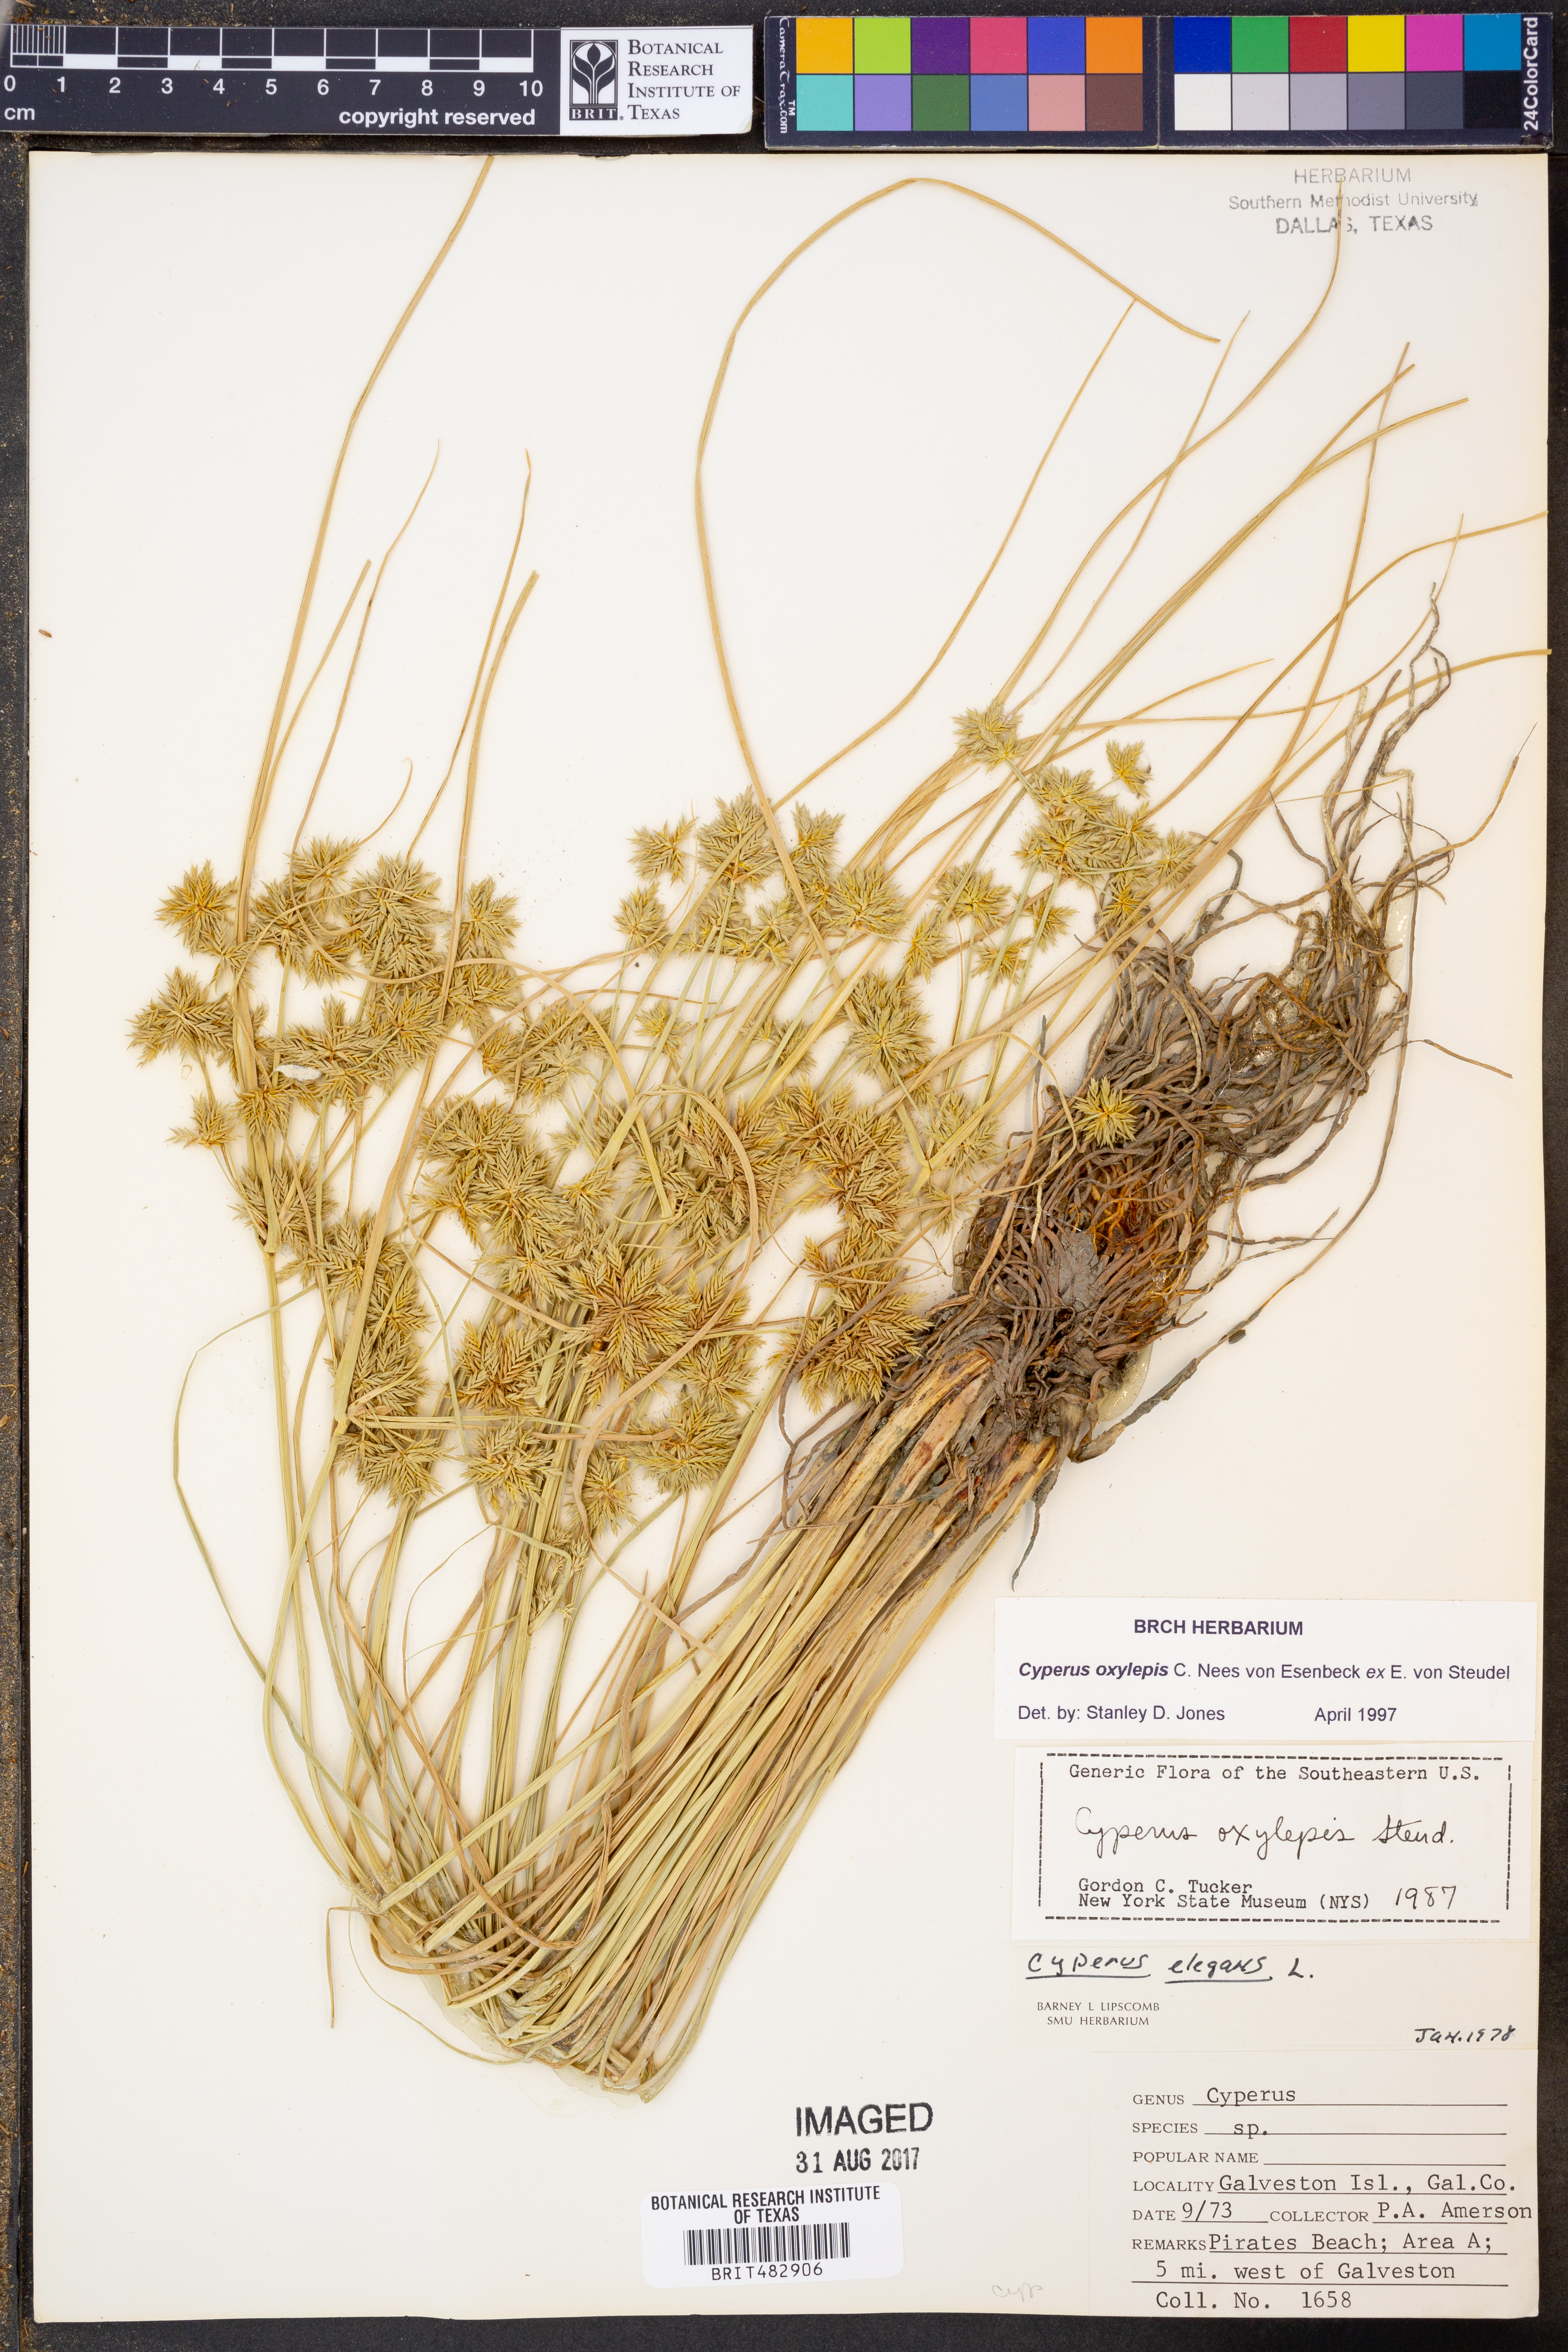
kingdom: Plantae
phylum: Tracheophyta
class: Liliopsida
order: Poales
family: Cyperaceae
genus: Cyperus
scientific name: Cyperus oxylepis
